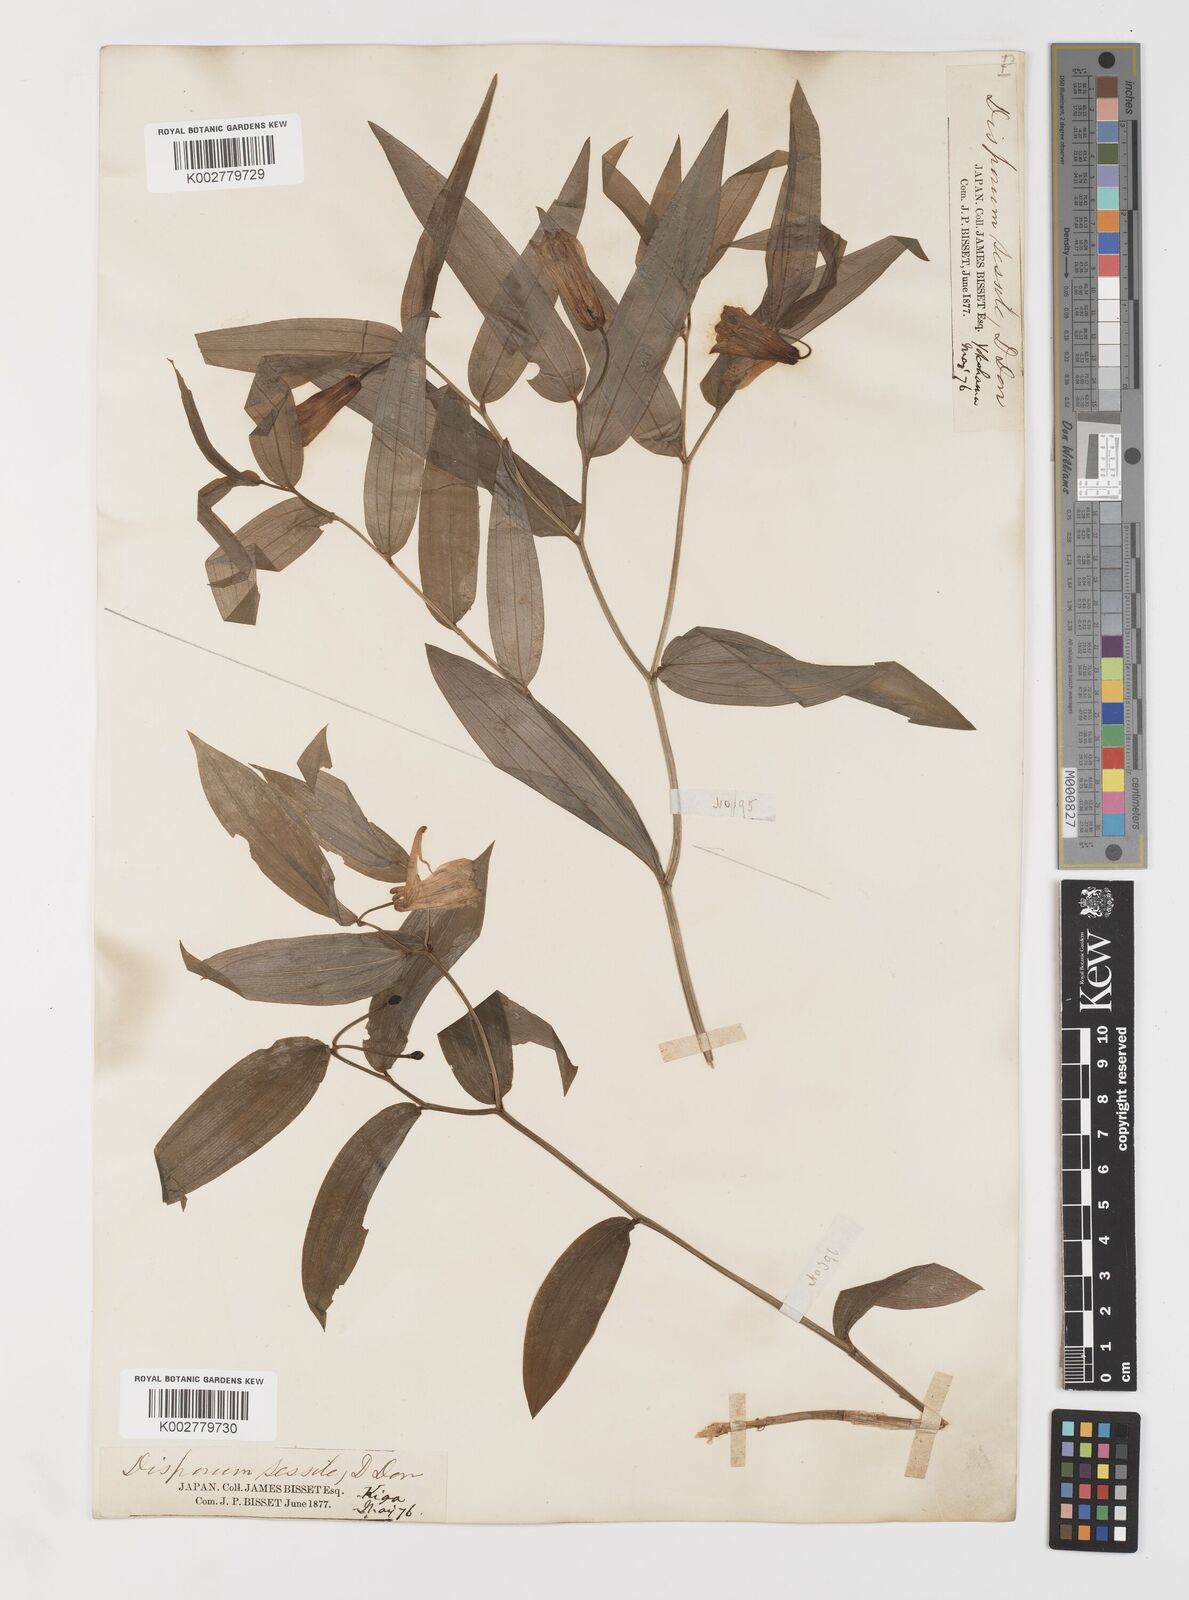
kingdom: Plantae
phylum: Tracheophyta
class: Liliopsida
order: Liliales
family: Colchicaceae
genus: Disporum
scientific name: Disporum sessile
